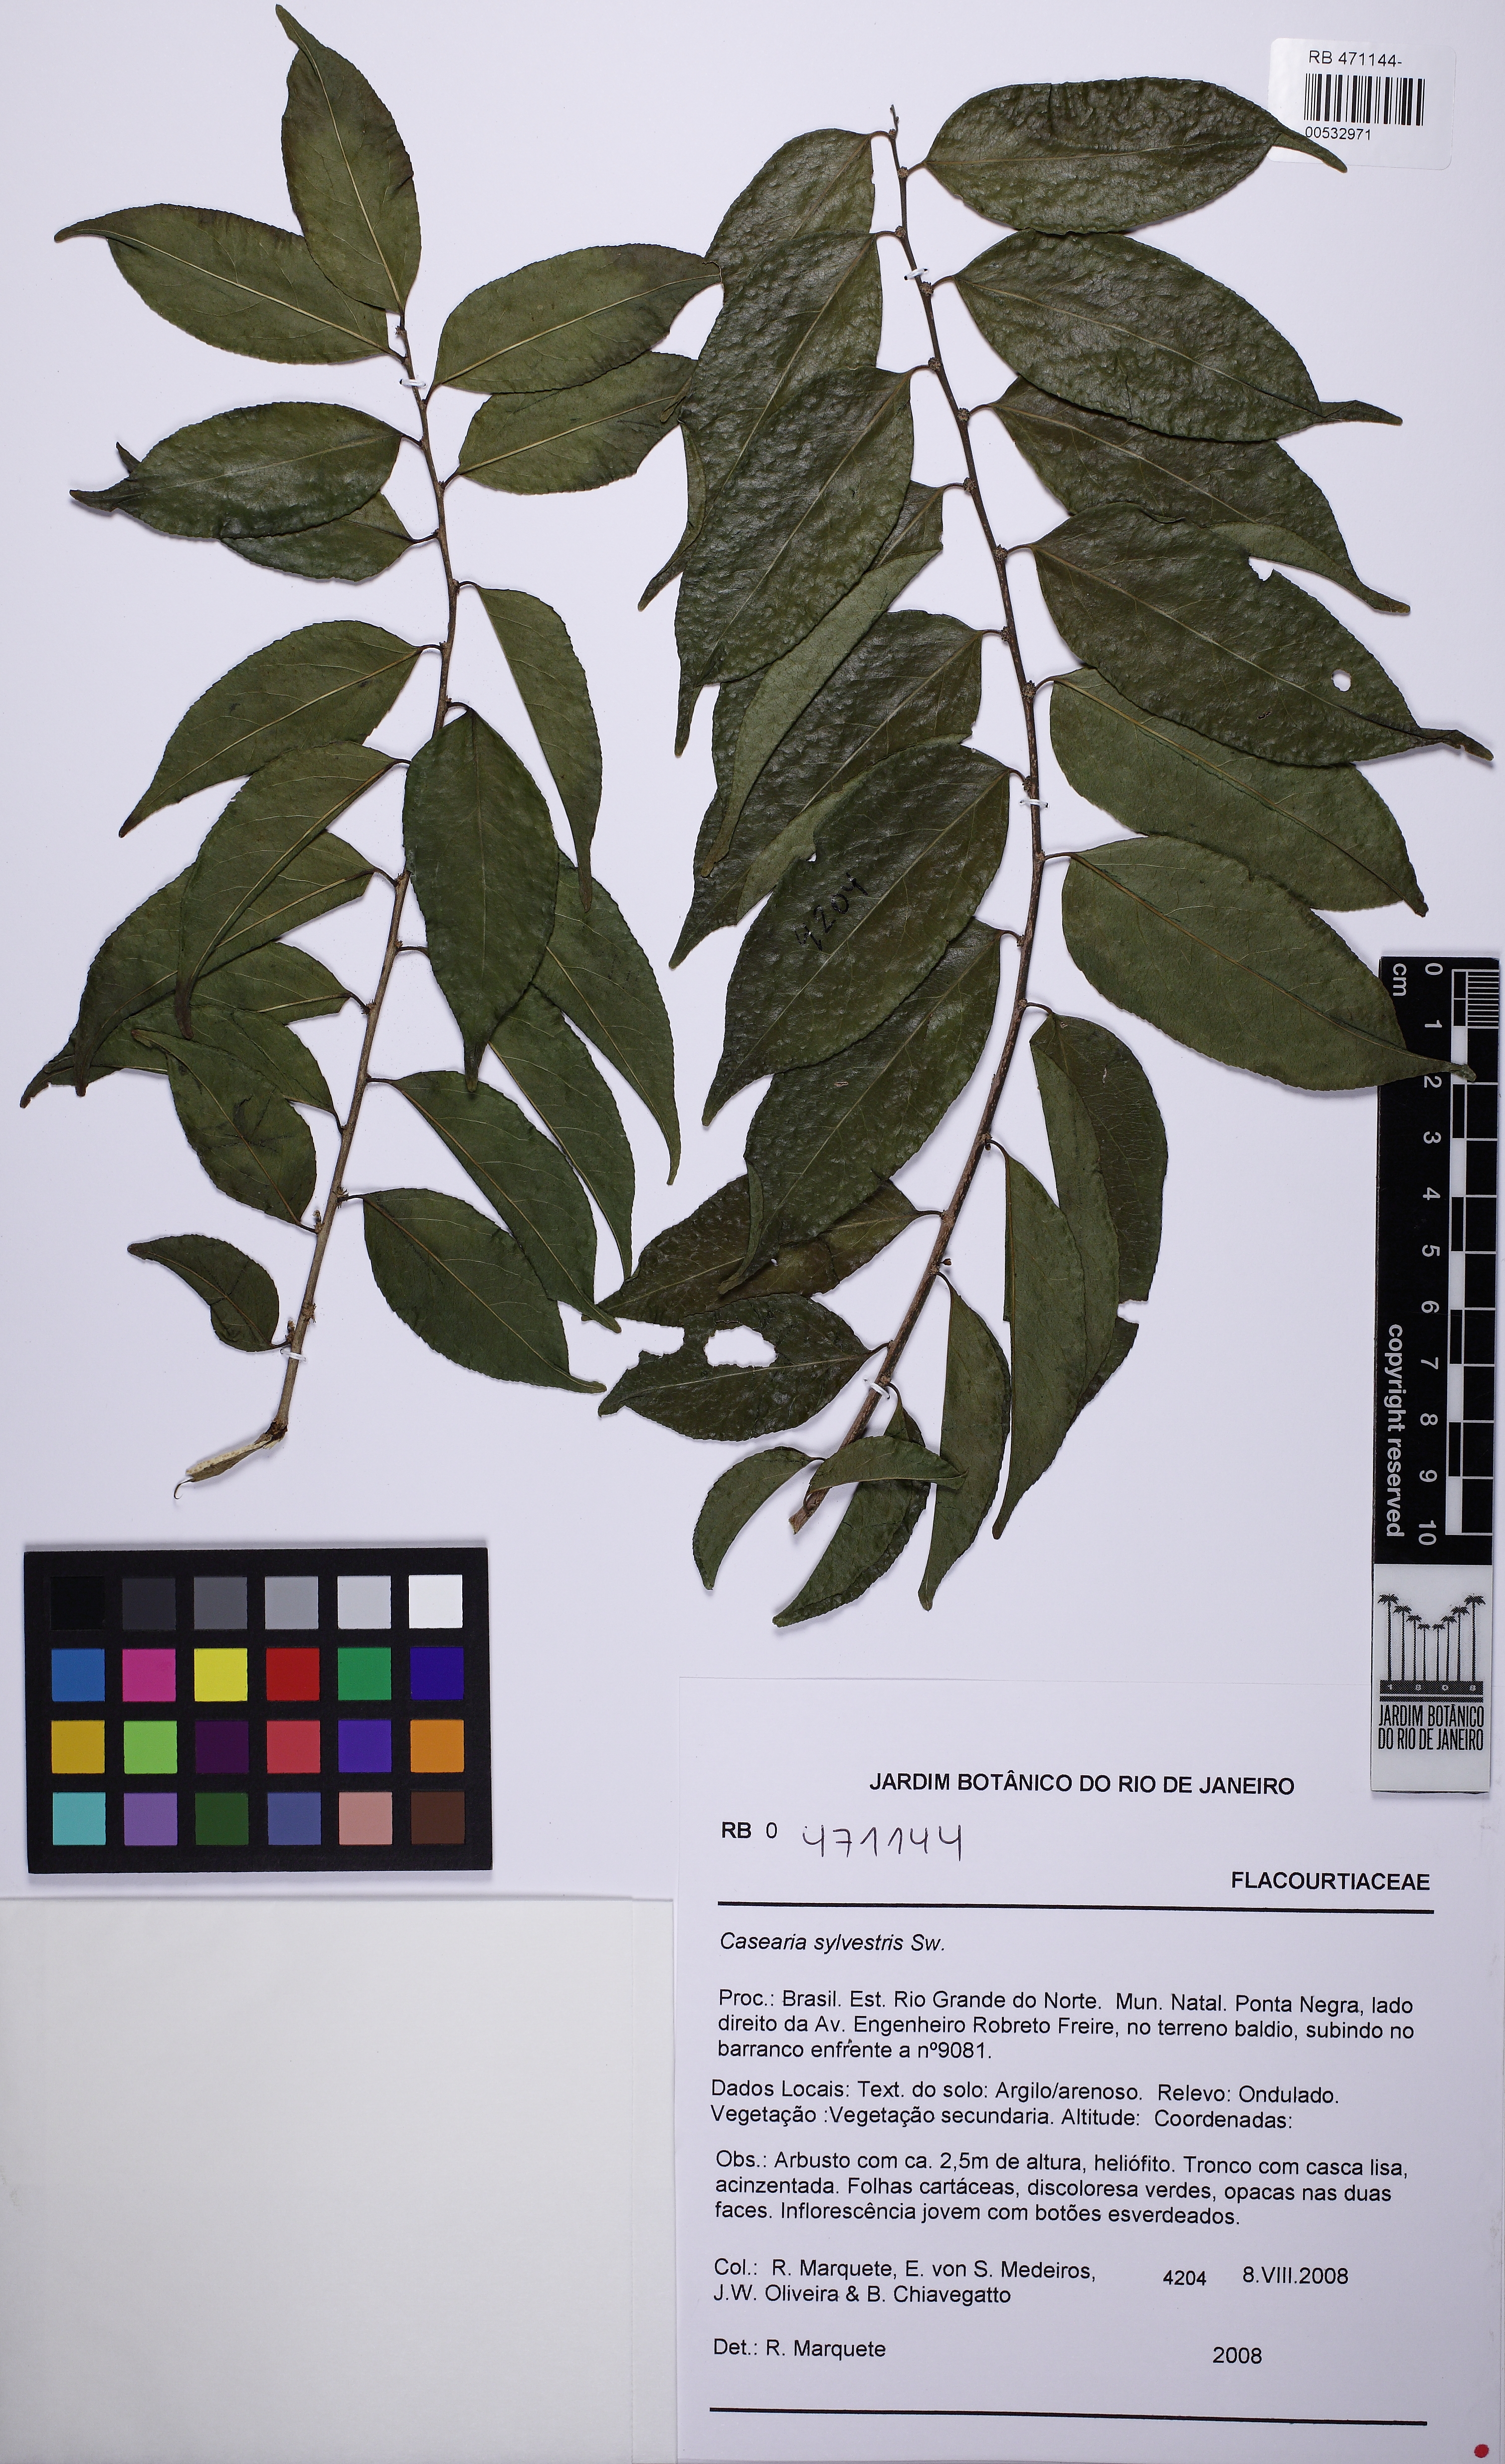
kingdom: Plantae
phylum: Tracheophyta
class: Magnoliopsida
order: Malpighiales
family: Salicaceae
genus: Casearia
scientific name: Casearia sylvestris
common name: Wild sage
